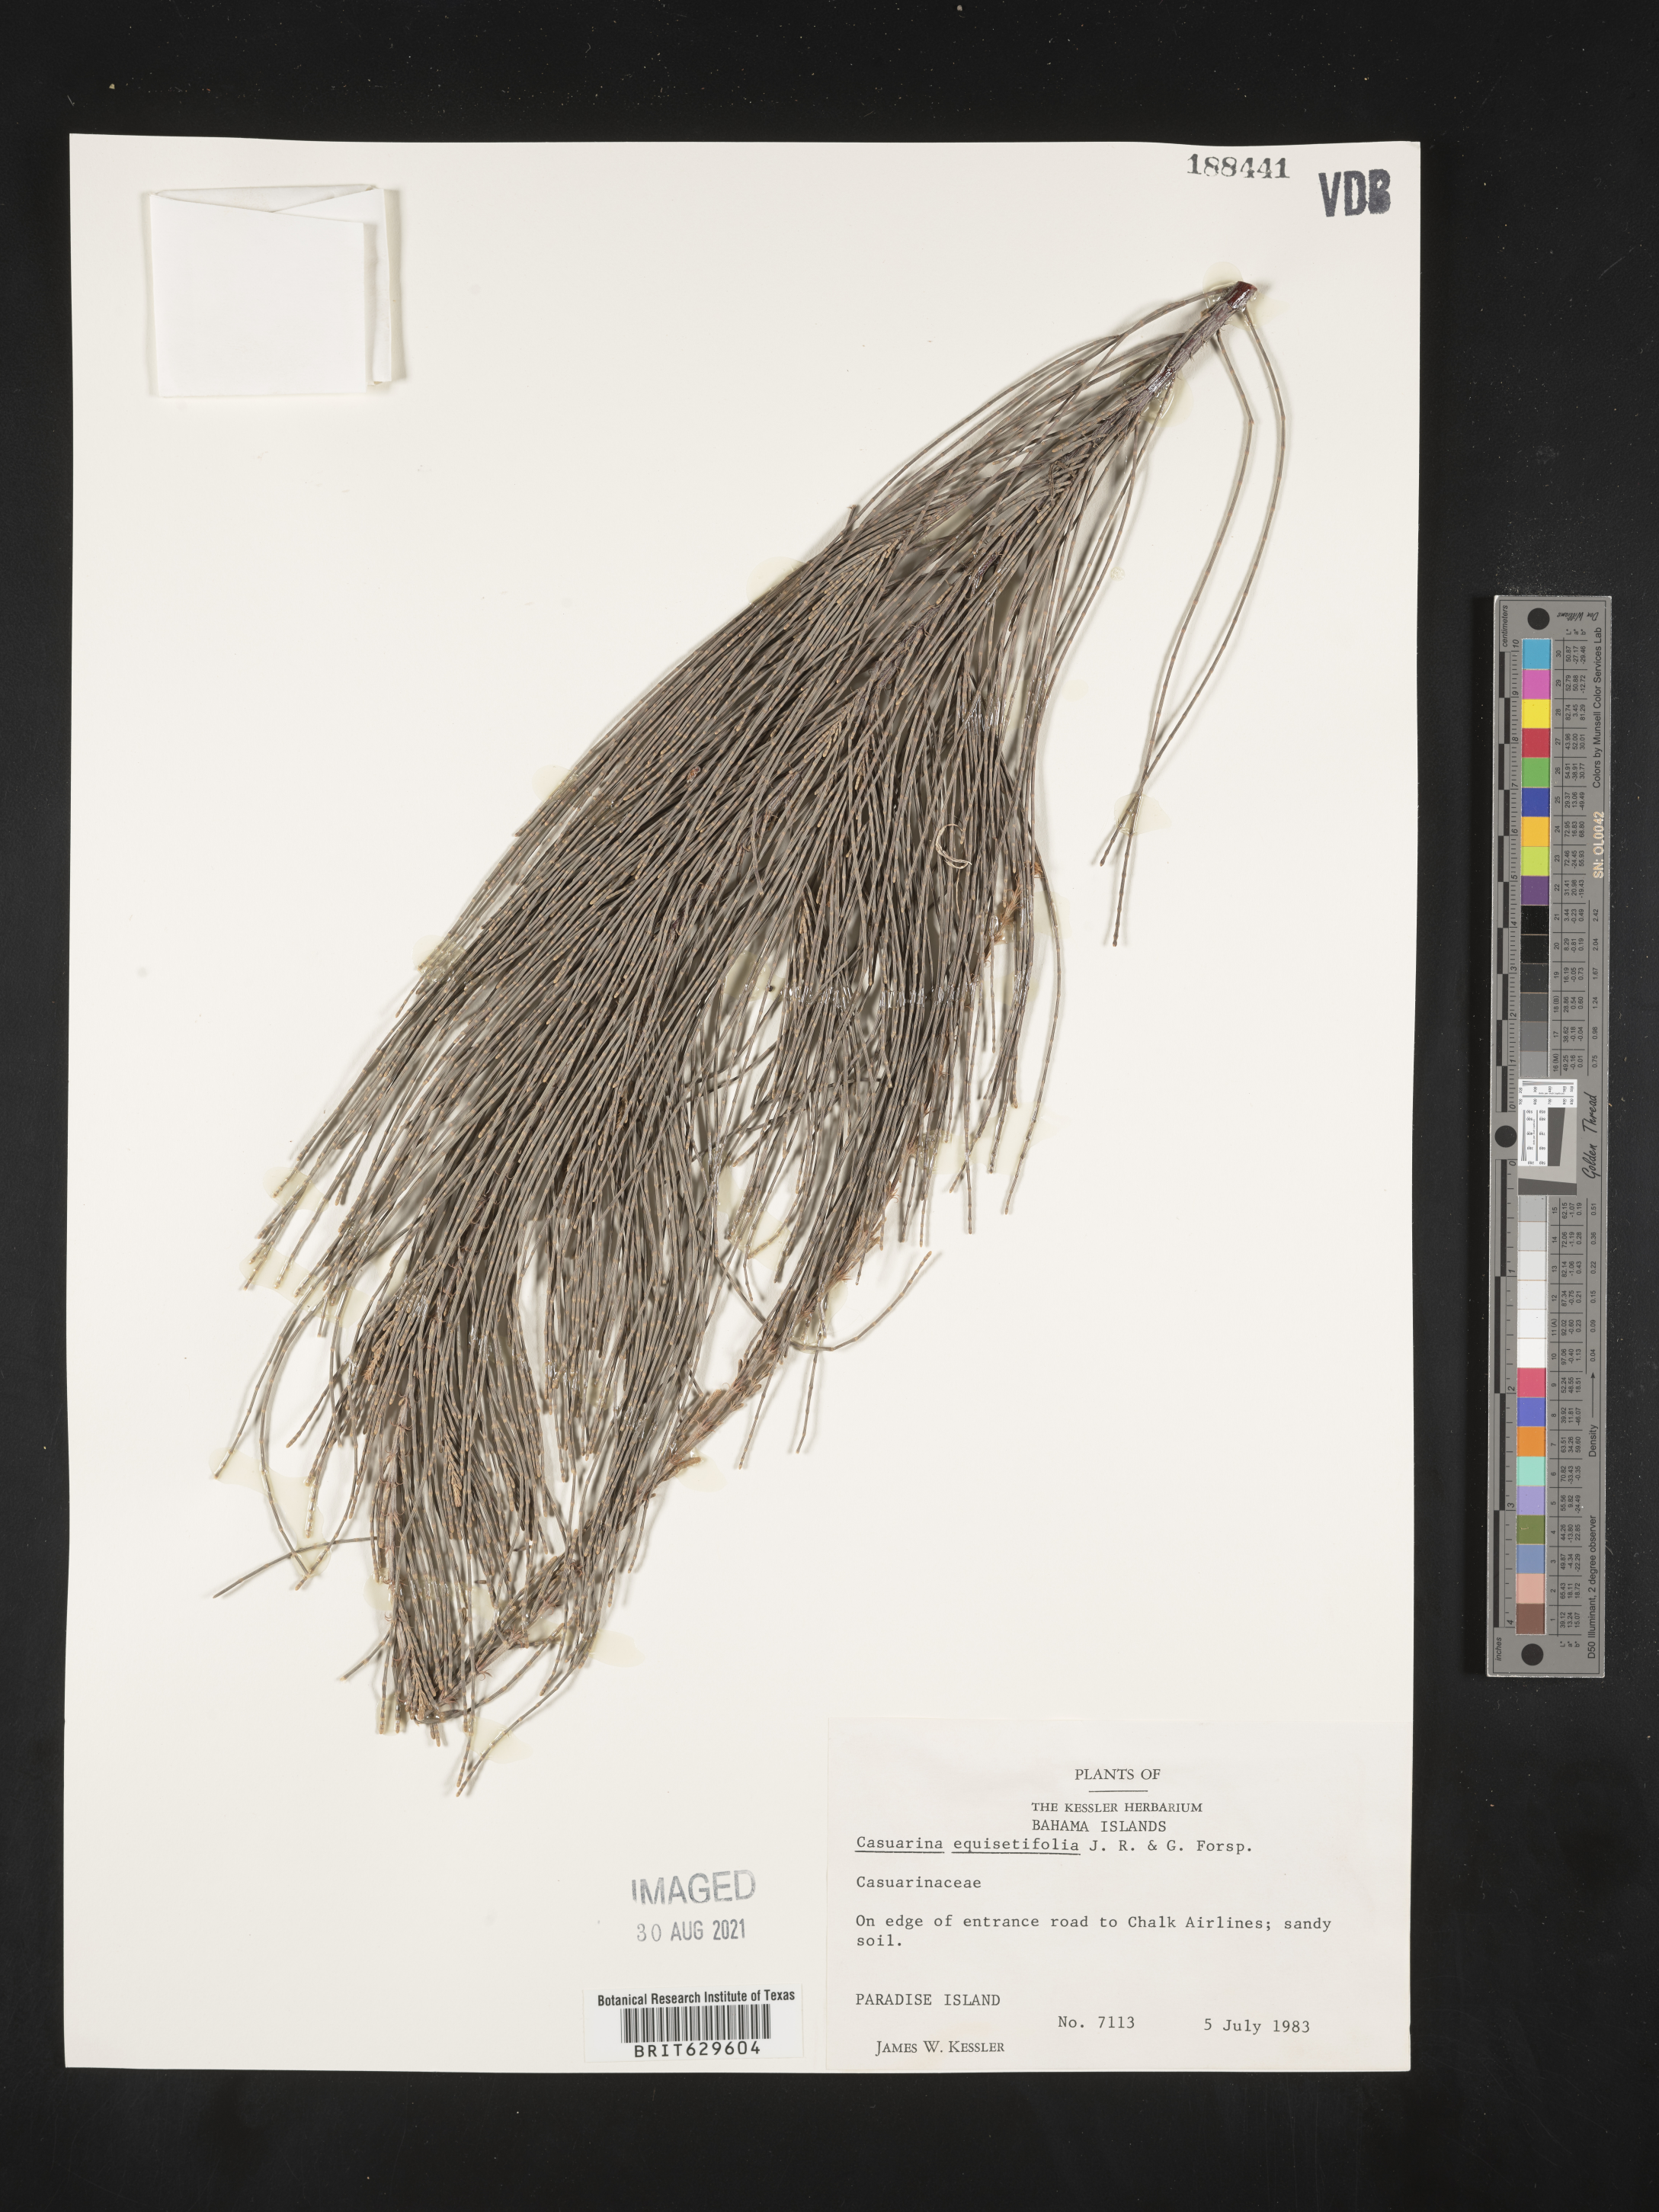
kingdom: Plantae
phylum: Tracheophyta
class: Magnoliopsida
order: Fagales
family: Casuarinaceae
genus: Casuarina
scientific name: Casuarina equisetifolia
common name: Beach sheoak
